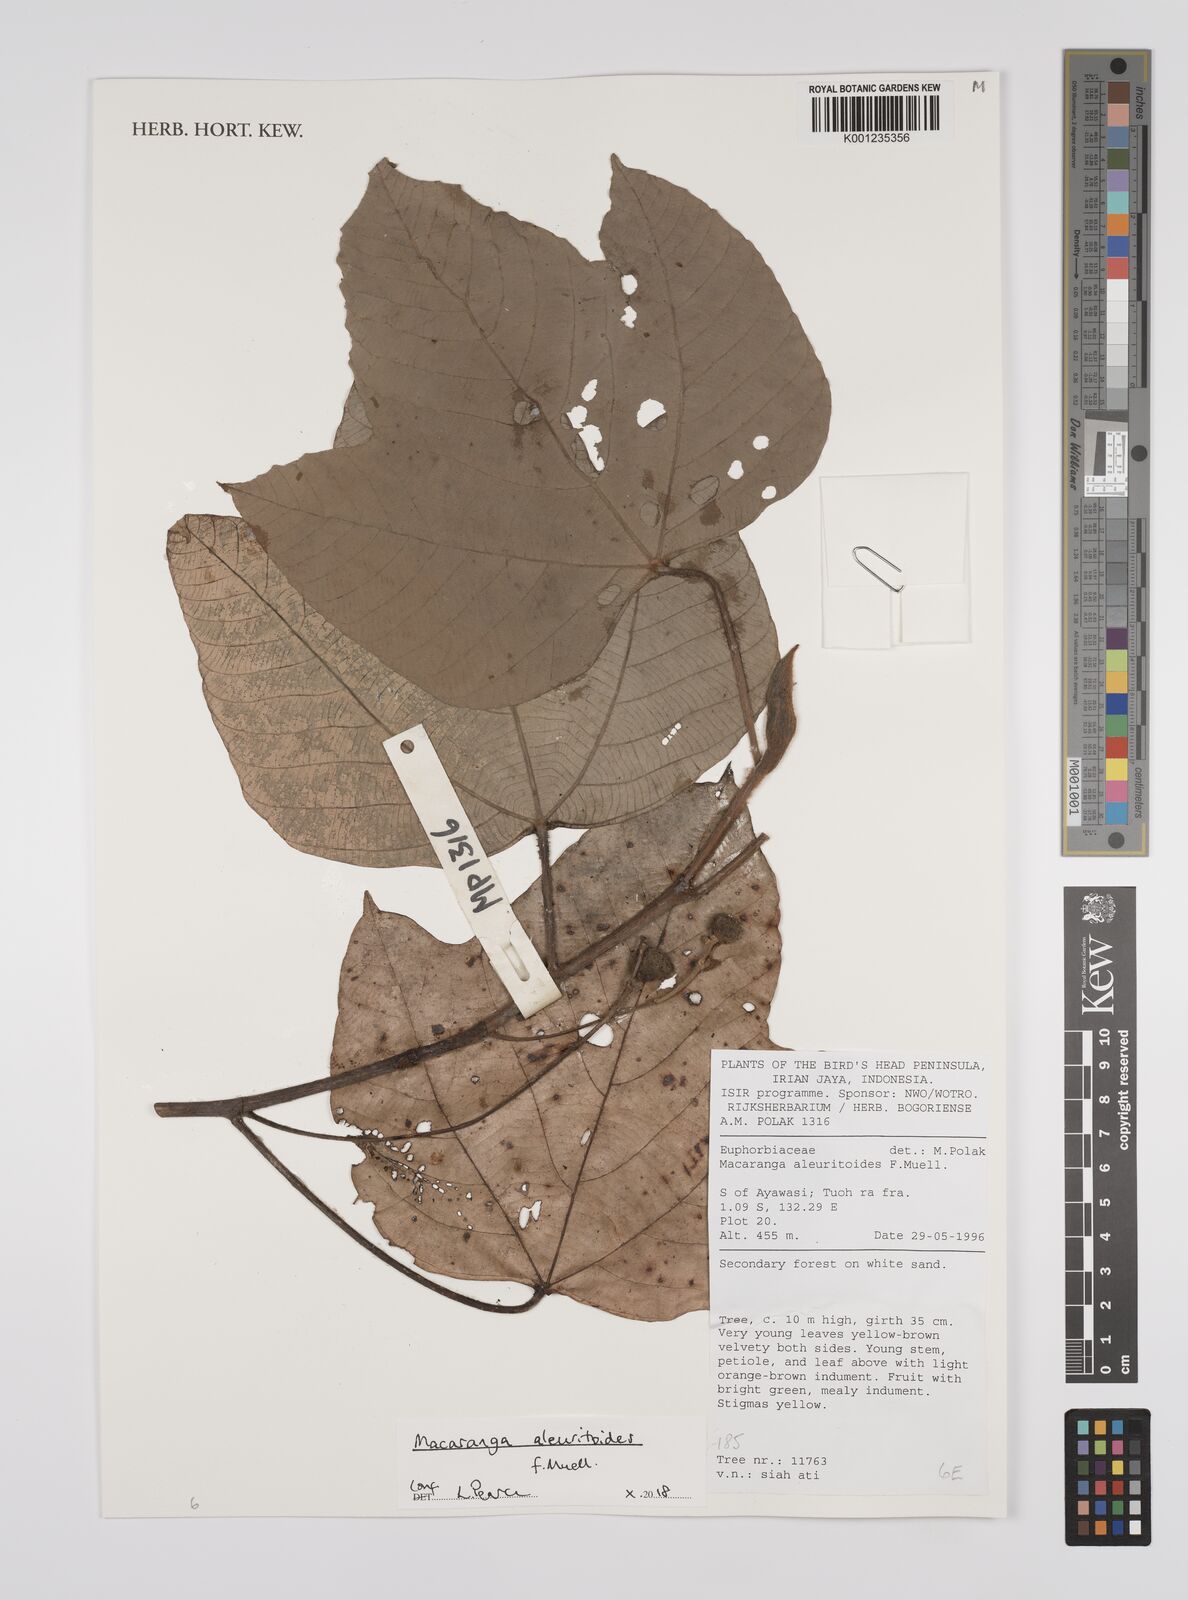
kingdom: Plantae
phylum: Tracheophyta
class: Magnoliopsida
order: Malpighiales
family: Euphorbiaceae
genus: Macaranga
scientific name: Macaranga aleuritoides
